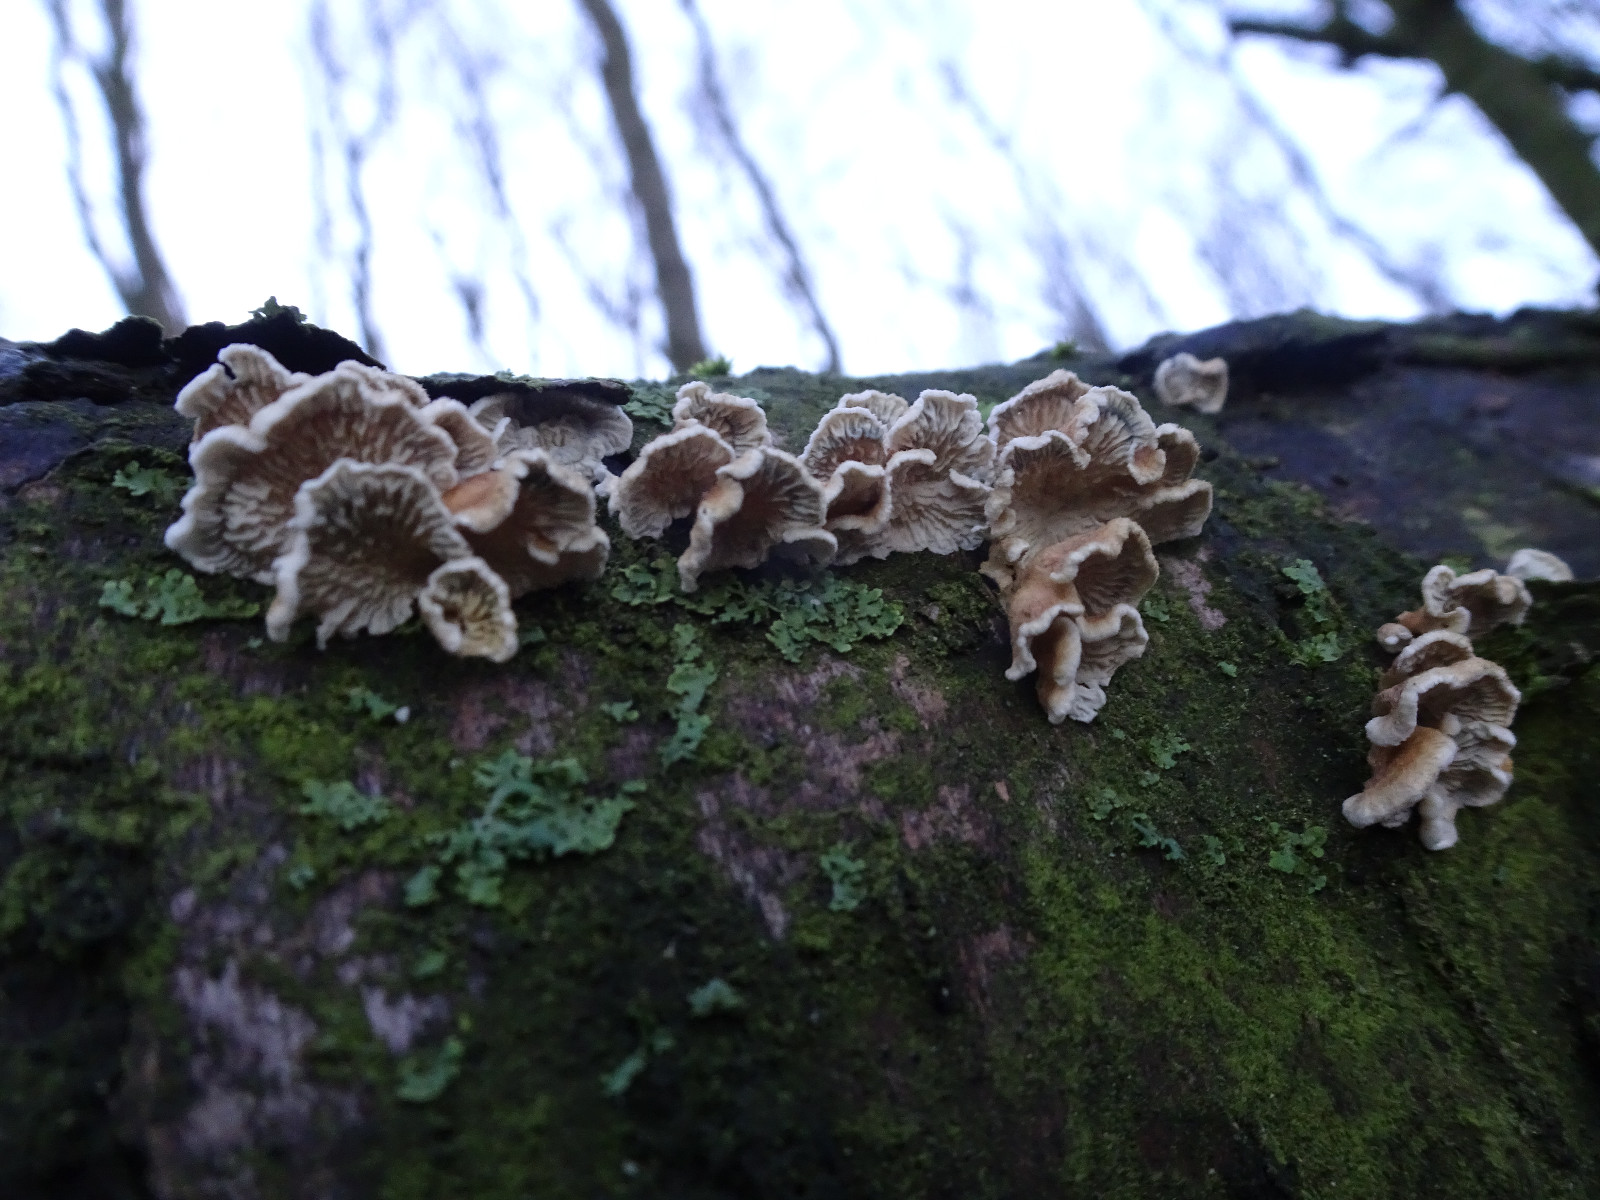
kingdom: Fungi
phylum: Basidiomycota
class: Agaricomycetes
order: Amylocorticiales
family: Amylocorticiaceae
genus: Plicaturopsis
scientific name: Plicaturopsis crispa
